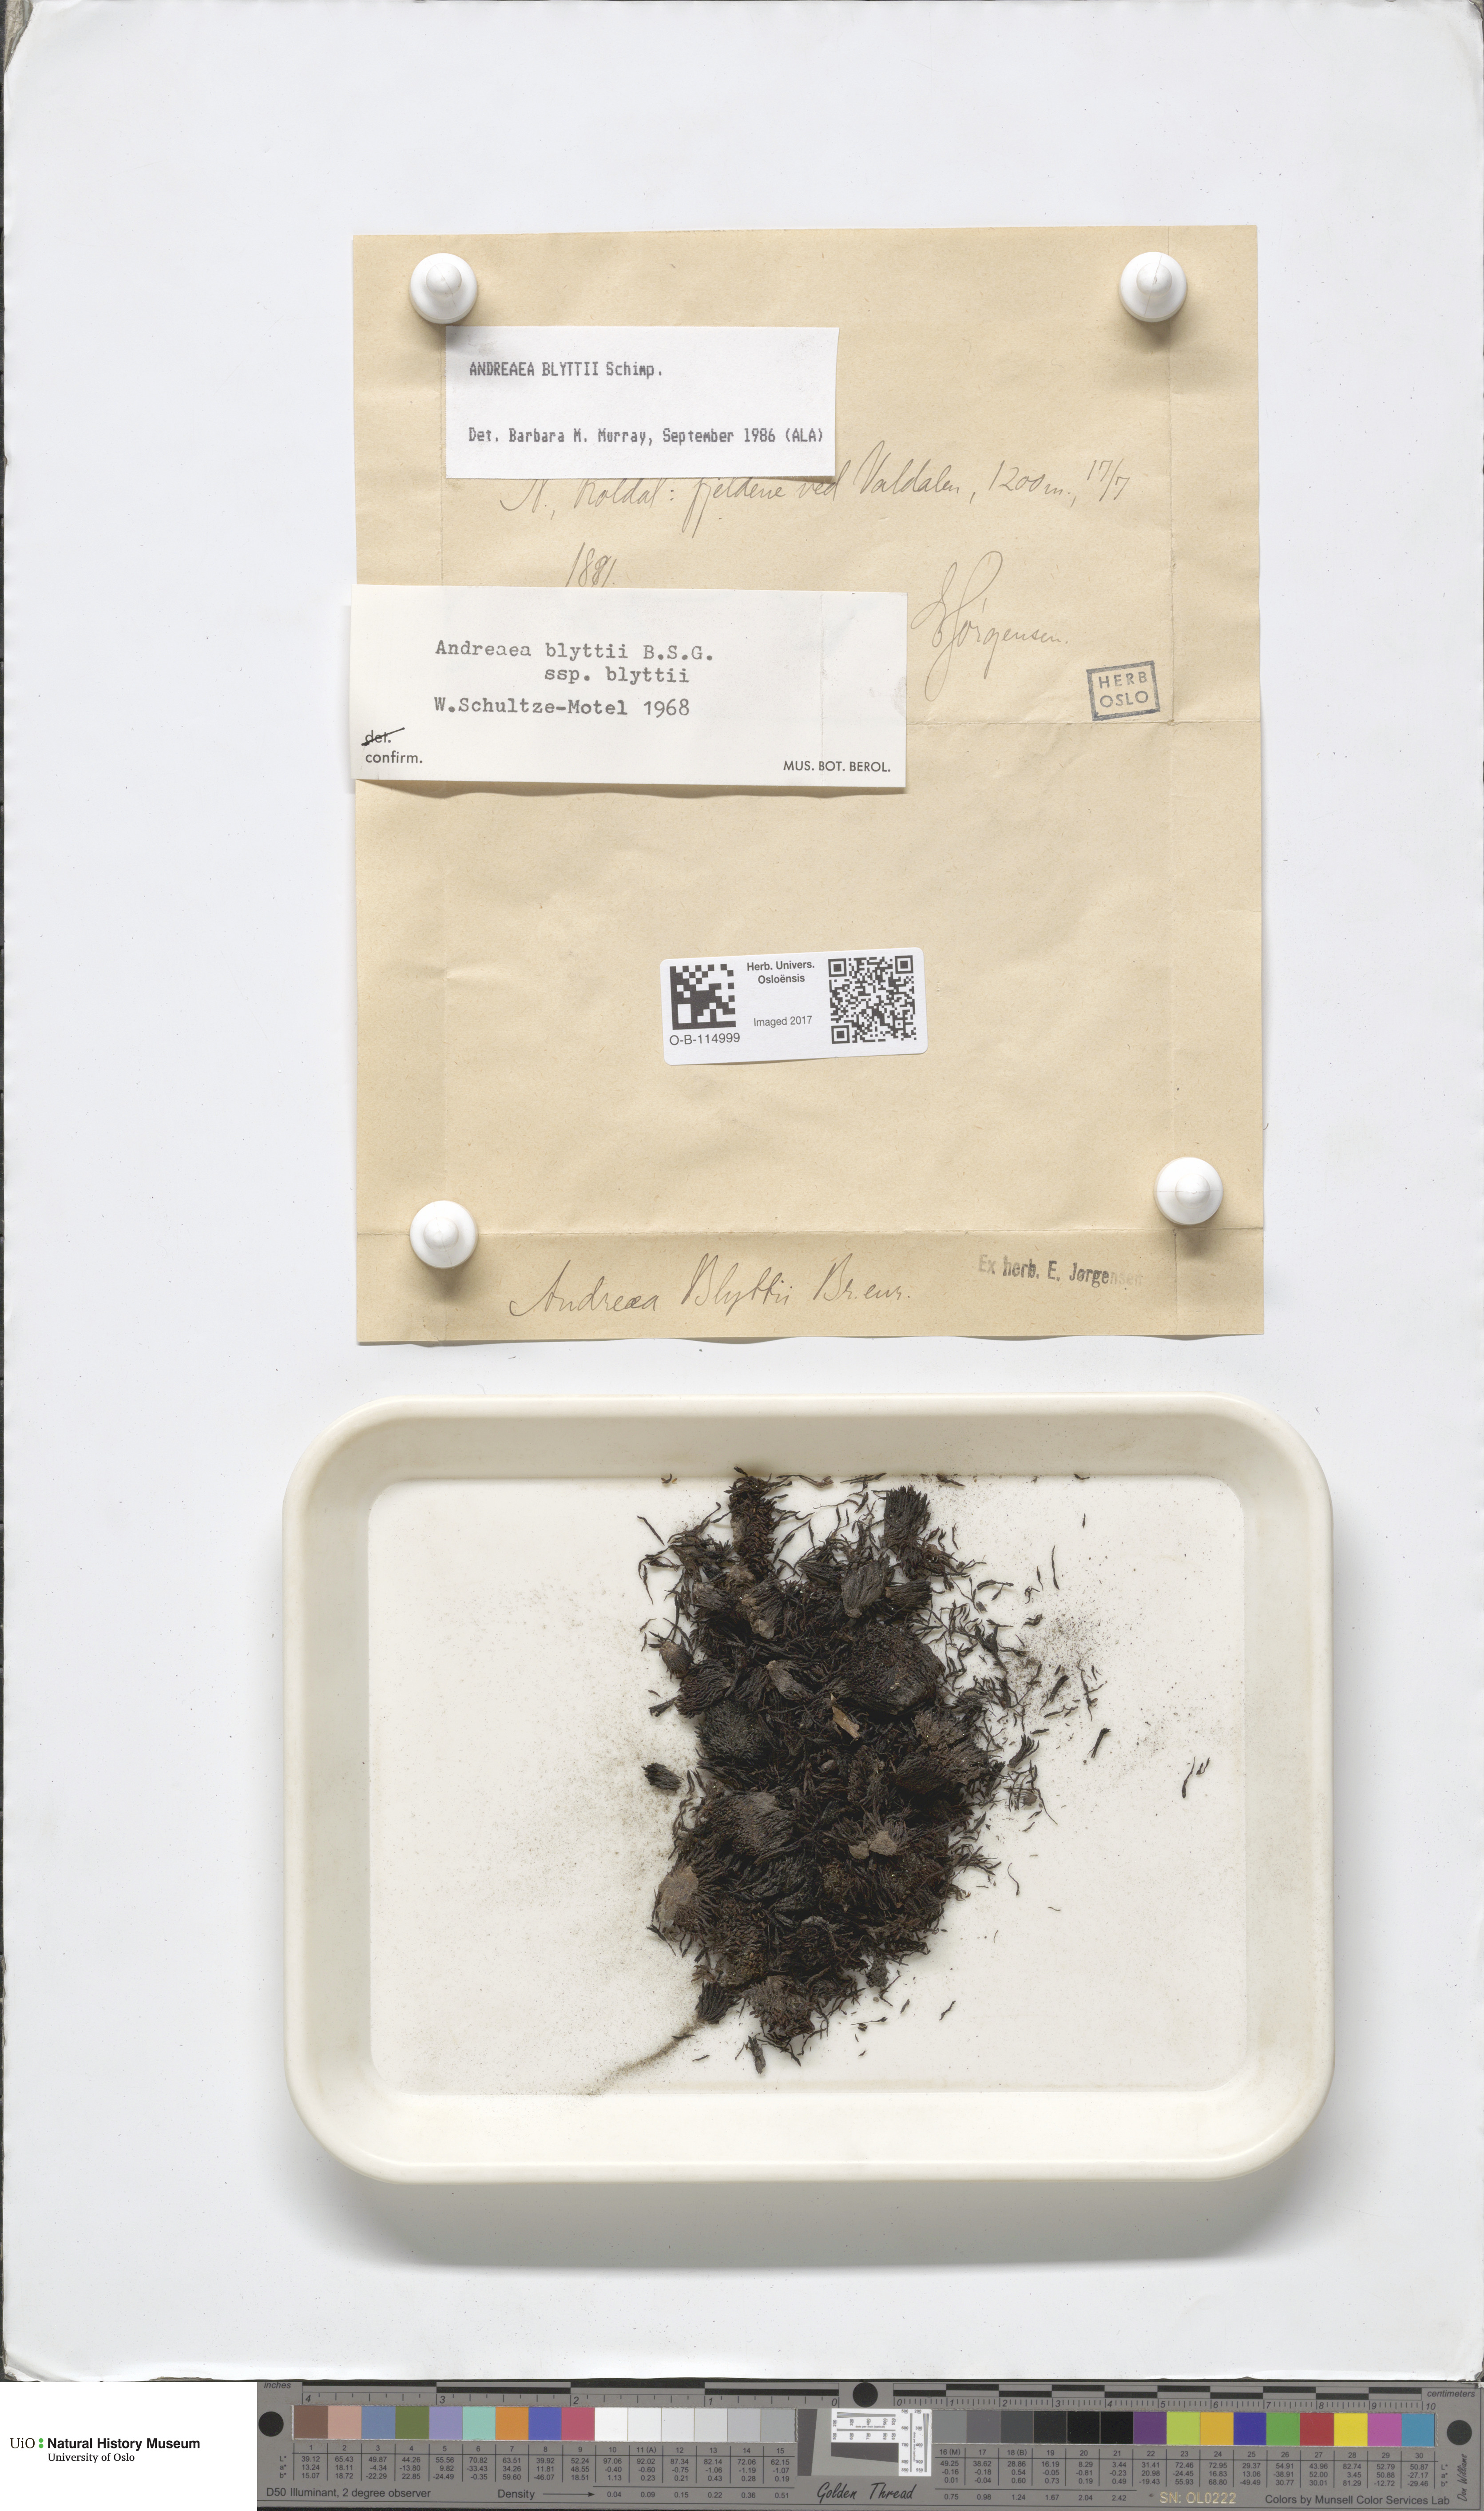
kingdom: Plantae
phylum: Bryophyta
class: Andreaeopsida
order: Andreaeales
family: Andreaeaceae
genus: Andreaea
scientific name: Andreaea hookeri
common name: Alpine rock-moss
